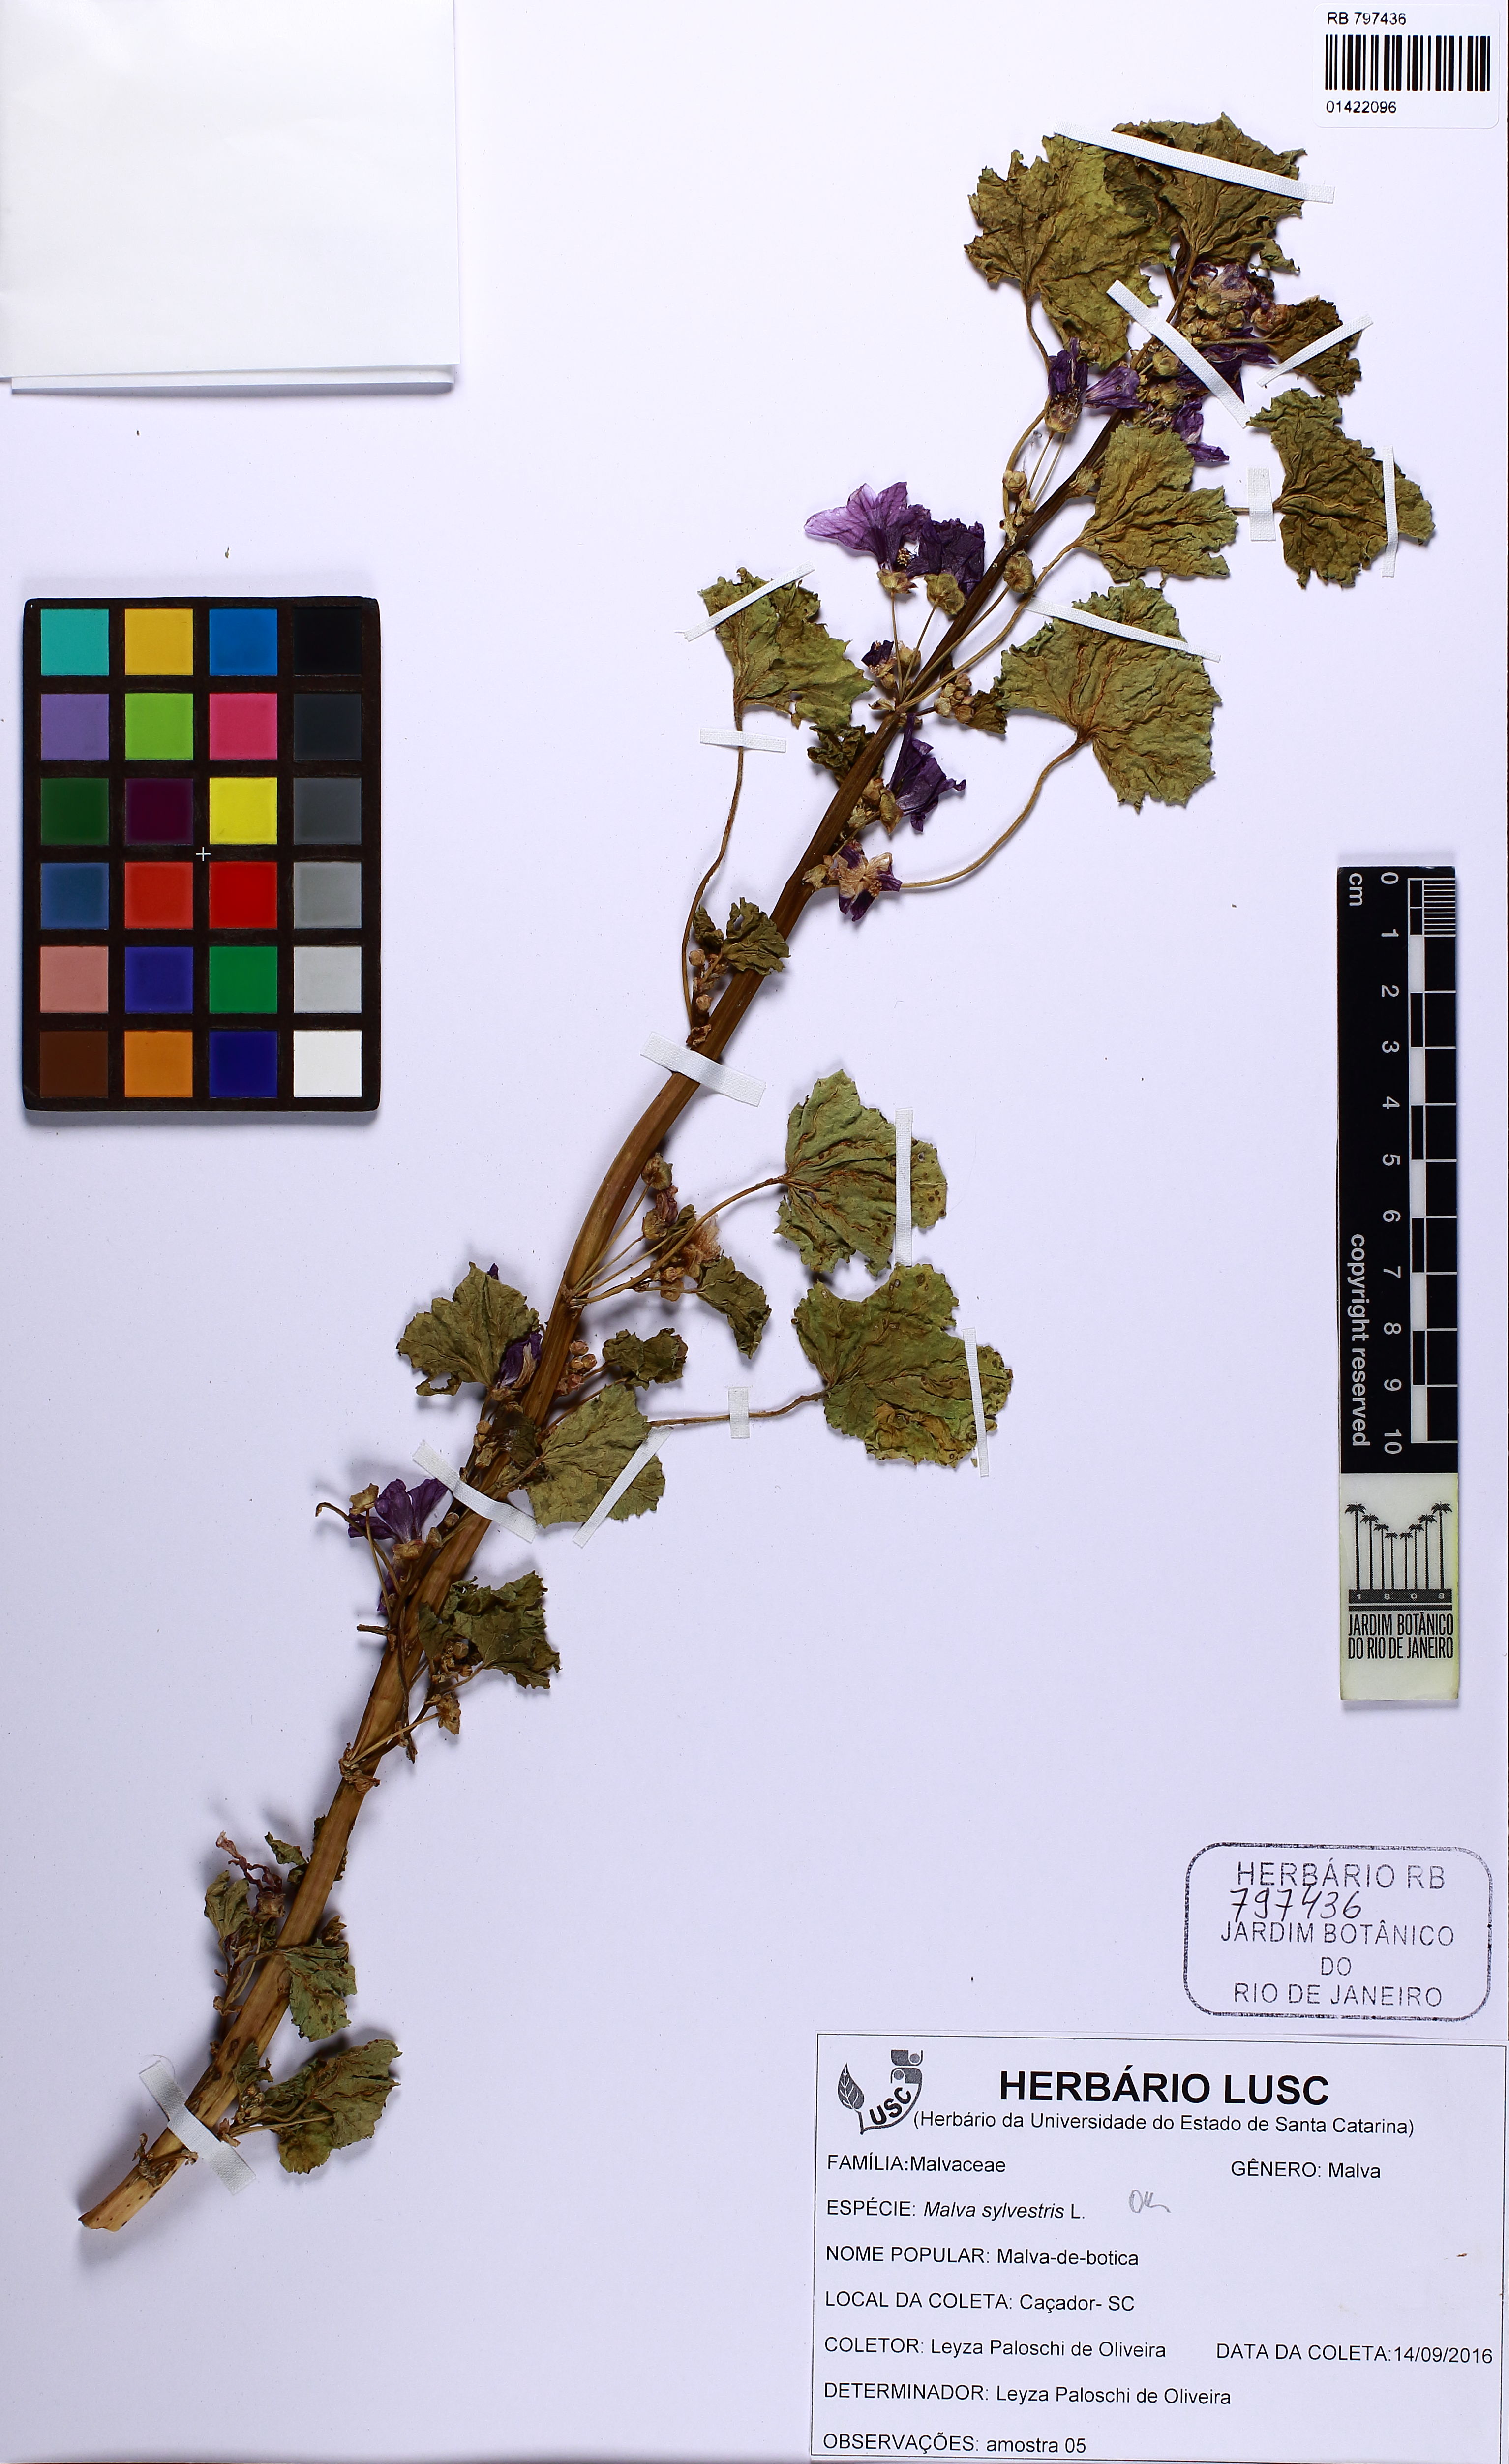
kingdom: Plantae
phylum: Tracheophyta
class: Magnoliopsida
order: Malvales
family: Malvaceae
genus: Malva
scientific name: Malva sylvestris
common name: Common mallow
